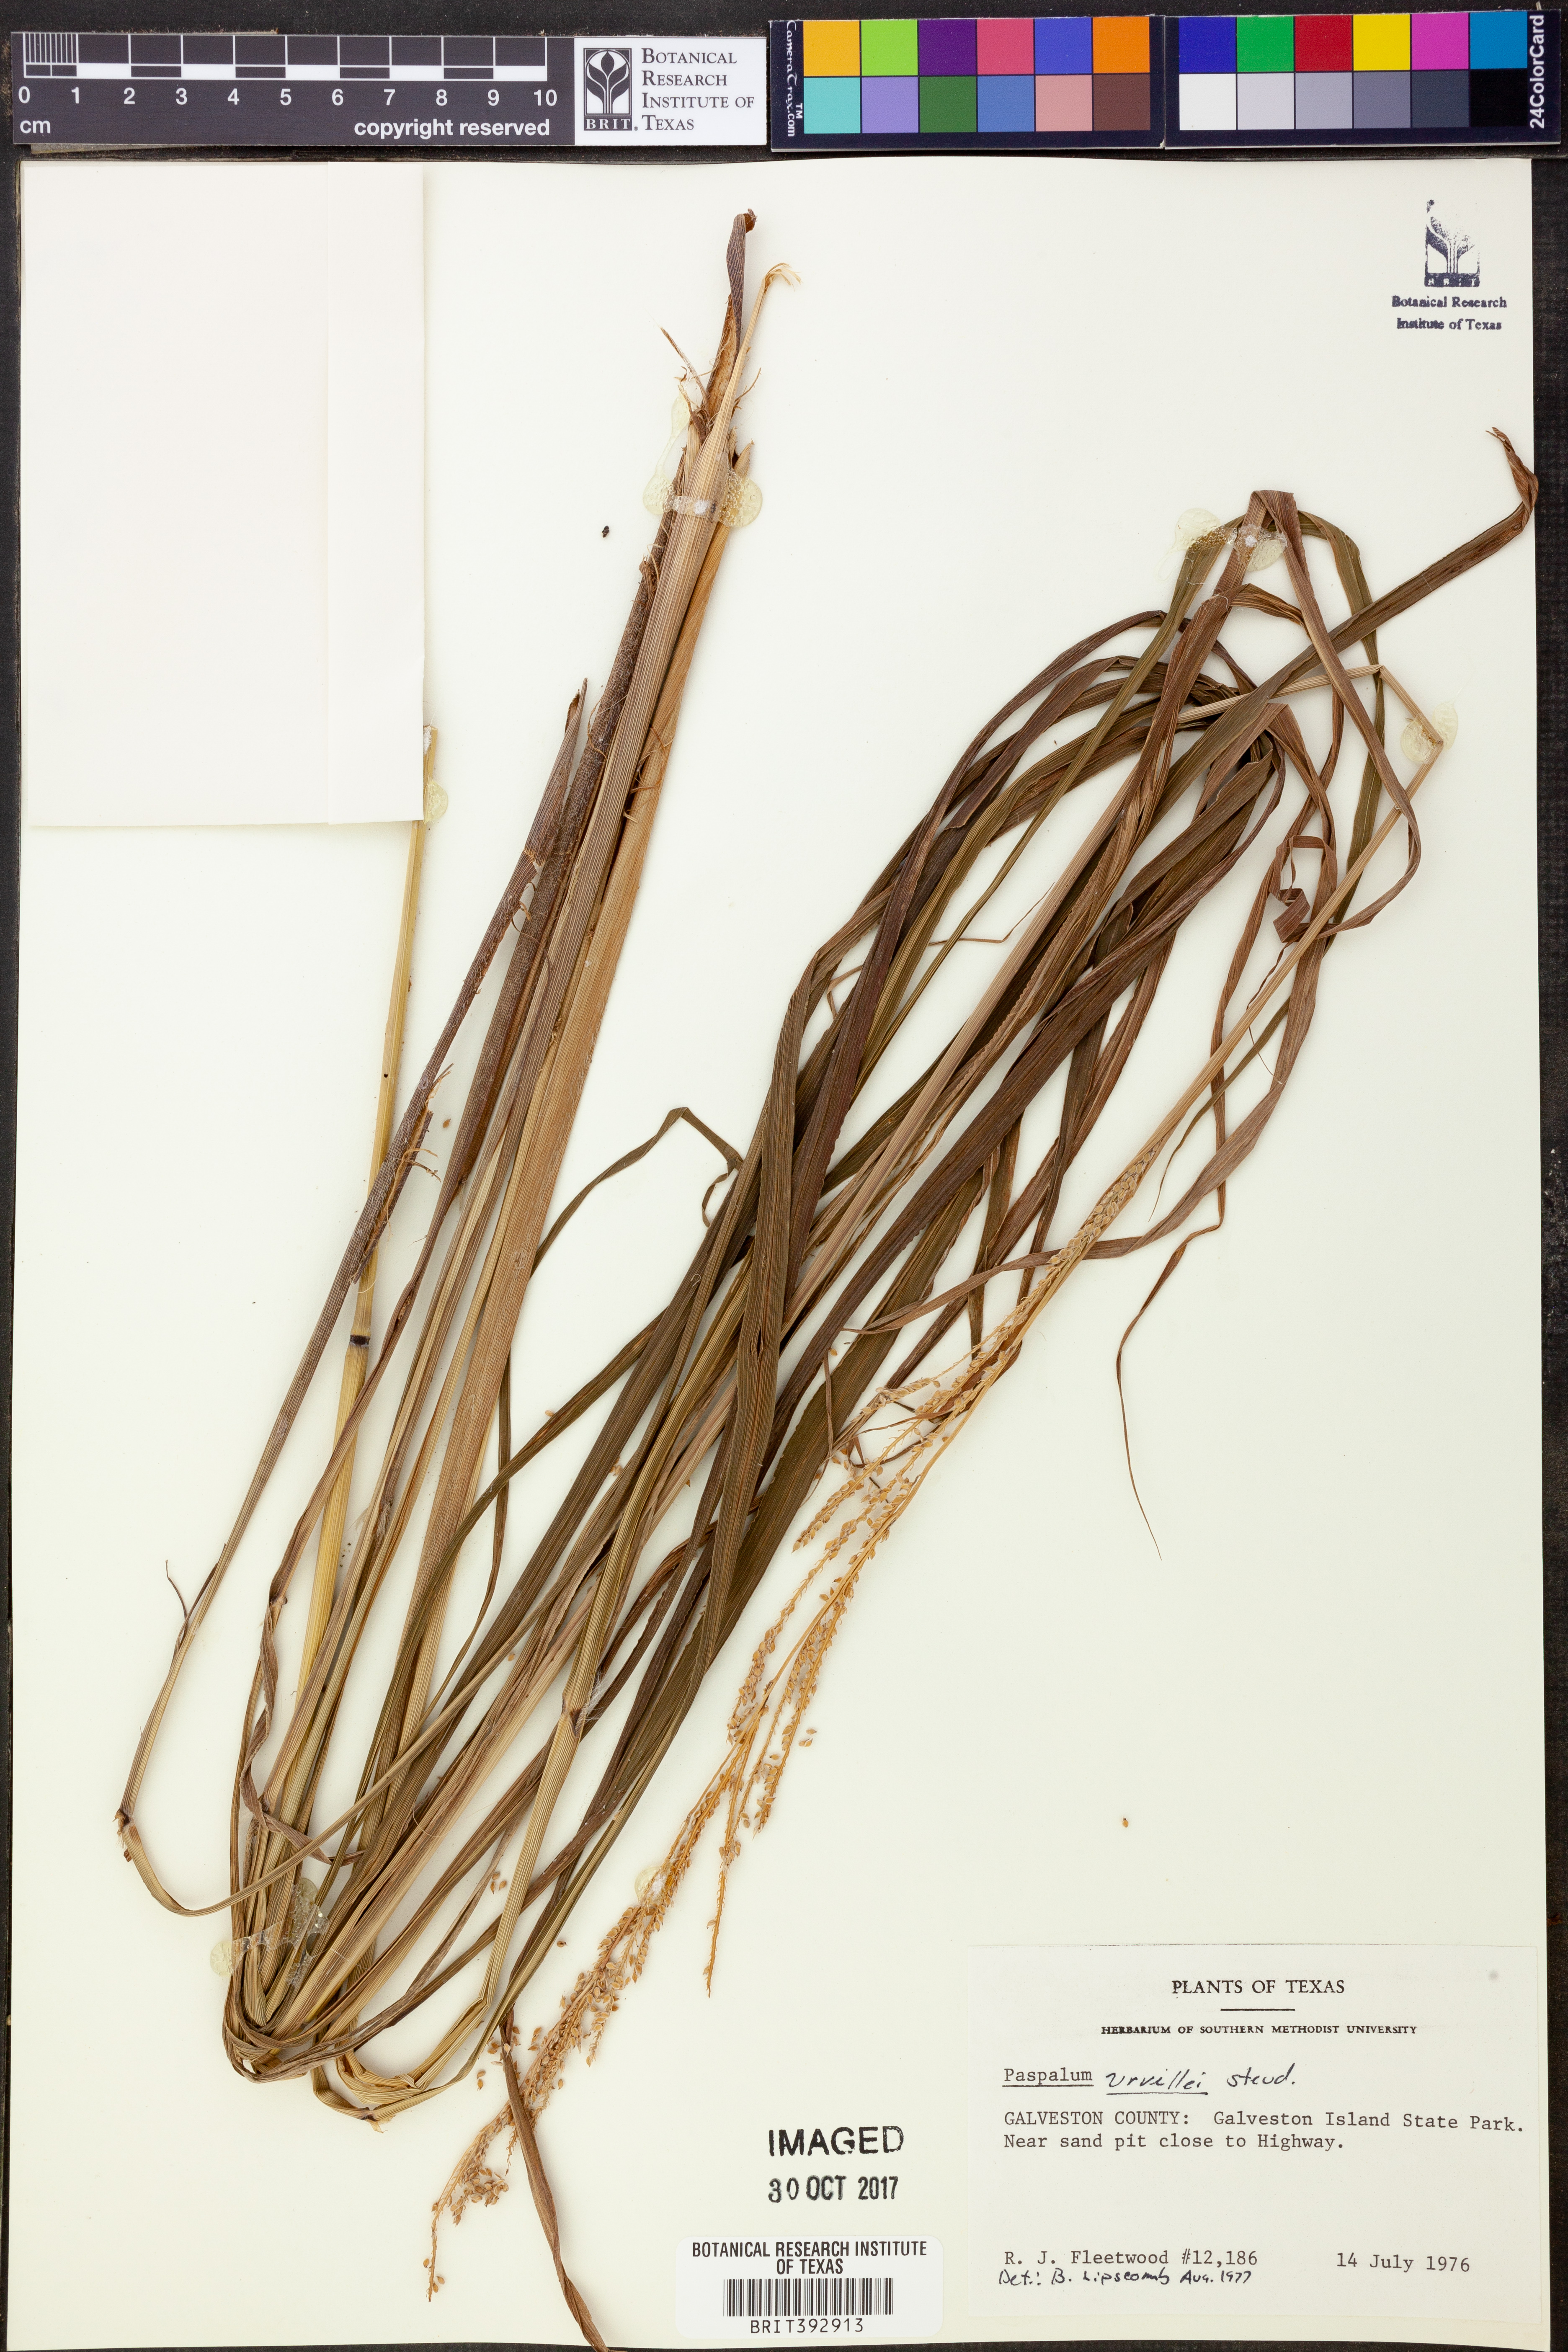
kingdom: Plantae
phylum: Tracheophyta
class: Liliopsida
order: Poales
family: Poaceae
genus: Paspalum
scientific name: Paspalum urvillei
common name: Vasey's grass
